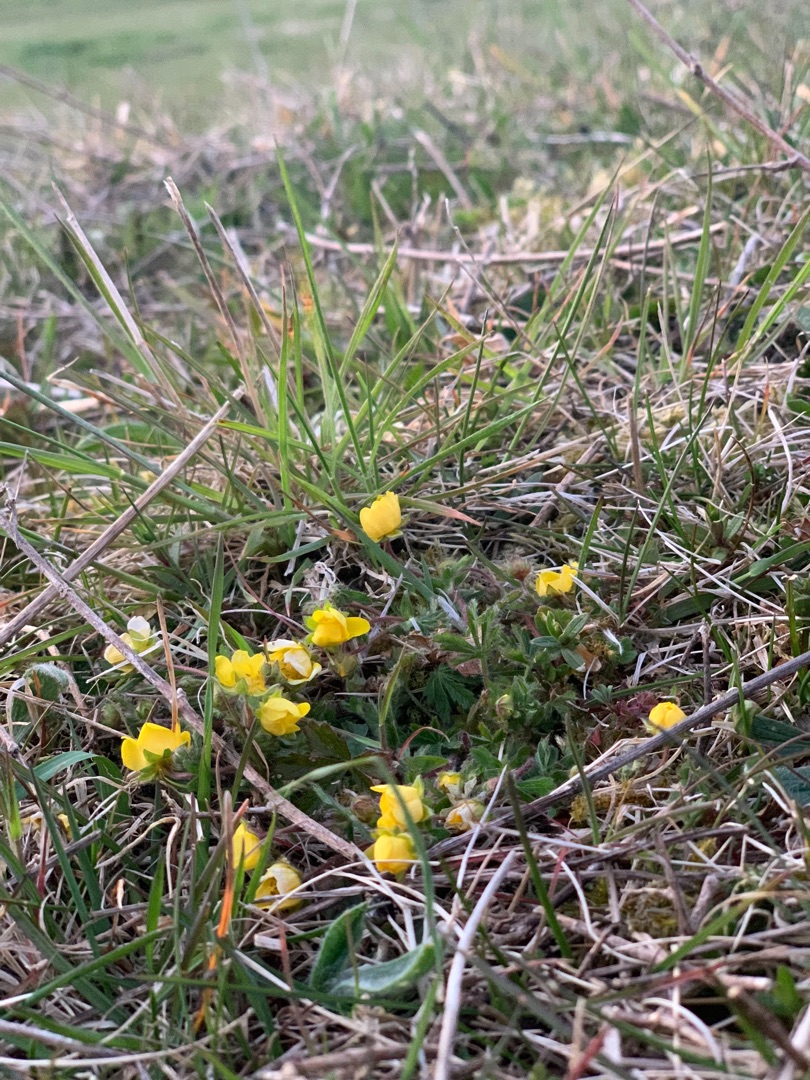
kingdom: Plantae
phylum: Tracheophyta
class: Magnoliopsida
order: Rosales
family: Rosaceae
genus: Potentilla
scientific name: Potentilla heptaphylla
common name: Mat potentil
